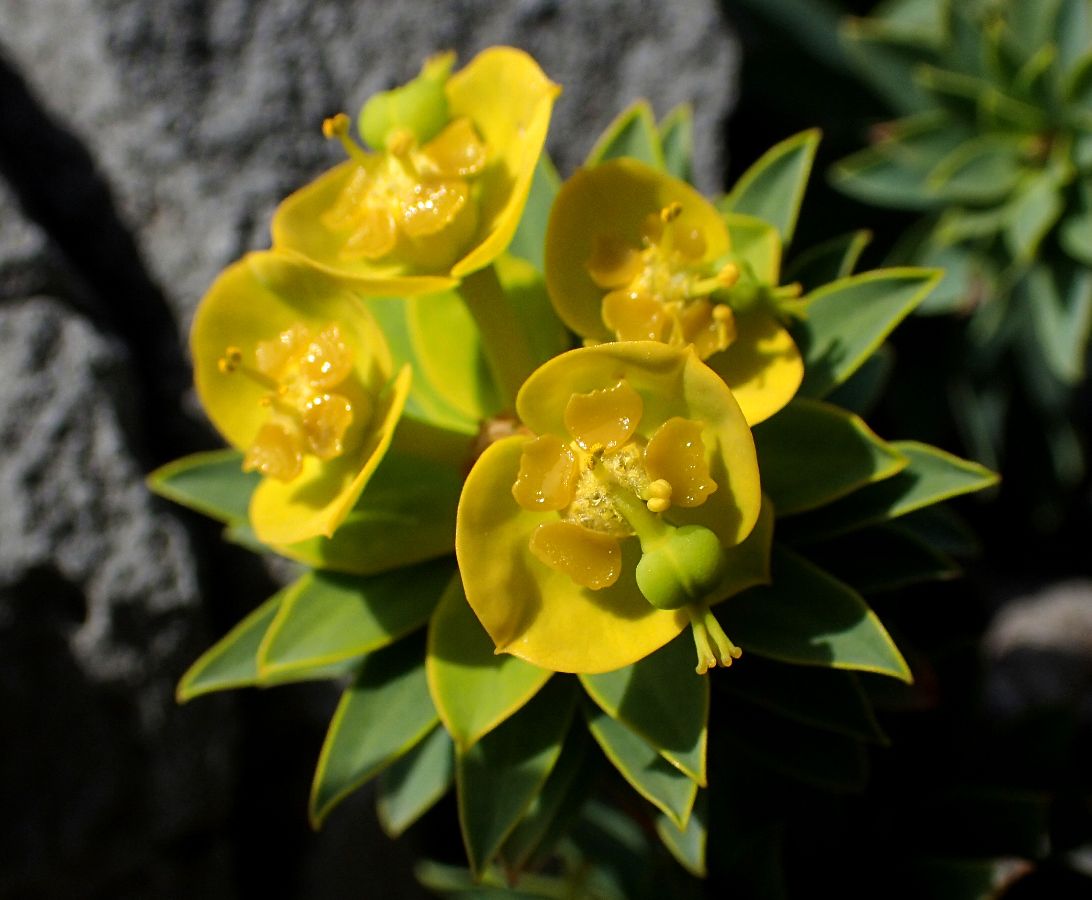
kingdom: Plantae
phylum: Tracheophyta
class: Magnoliopsida
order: Malpighiales
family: Euphorbiaceae
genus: Euphorbia
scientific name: Euphorbia dendroides
